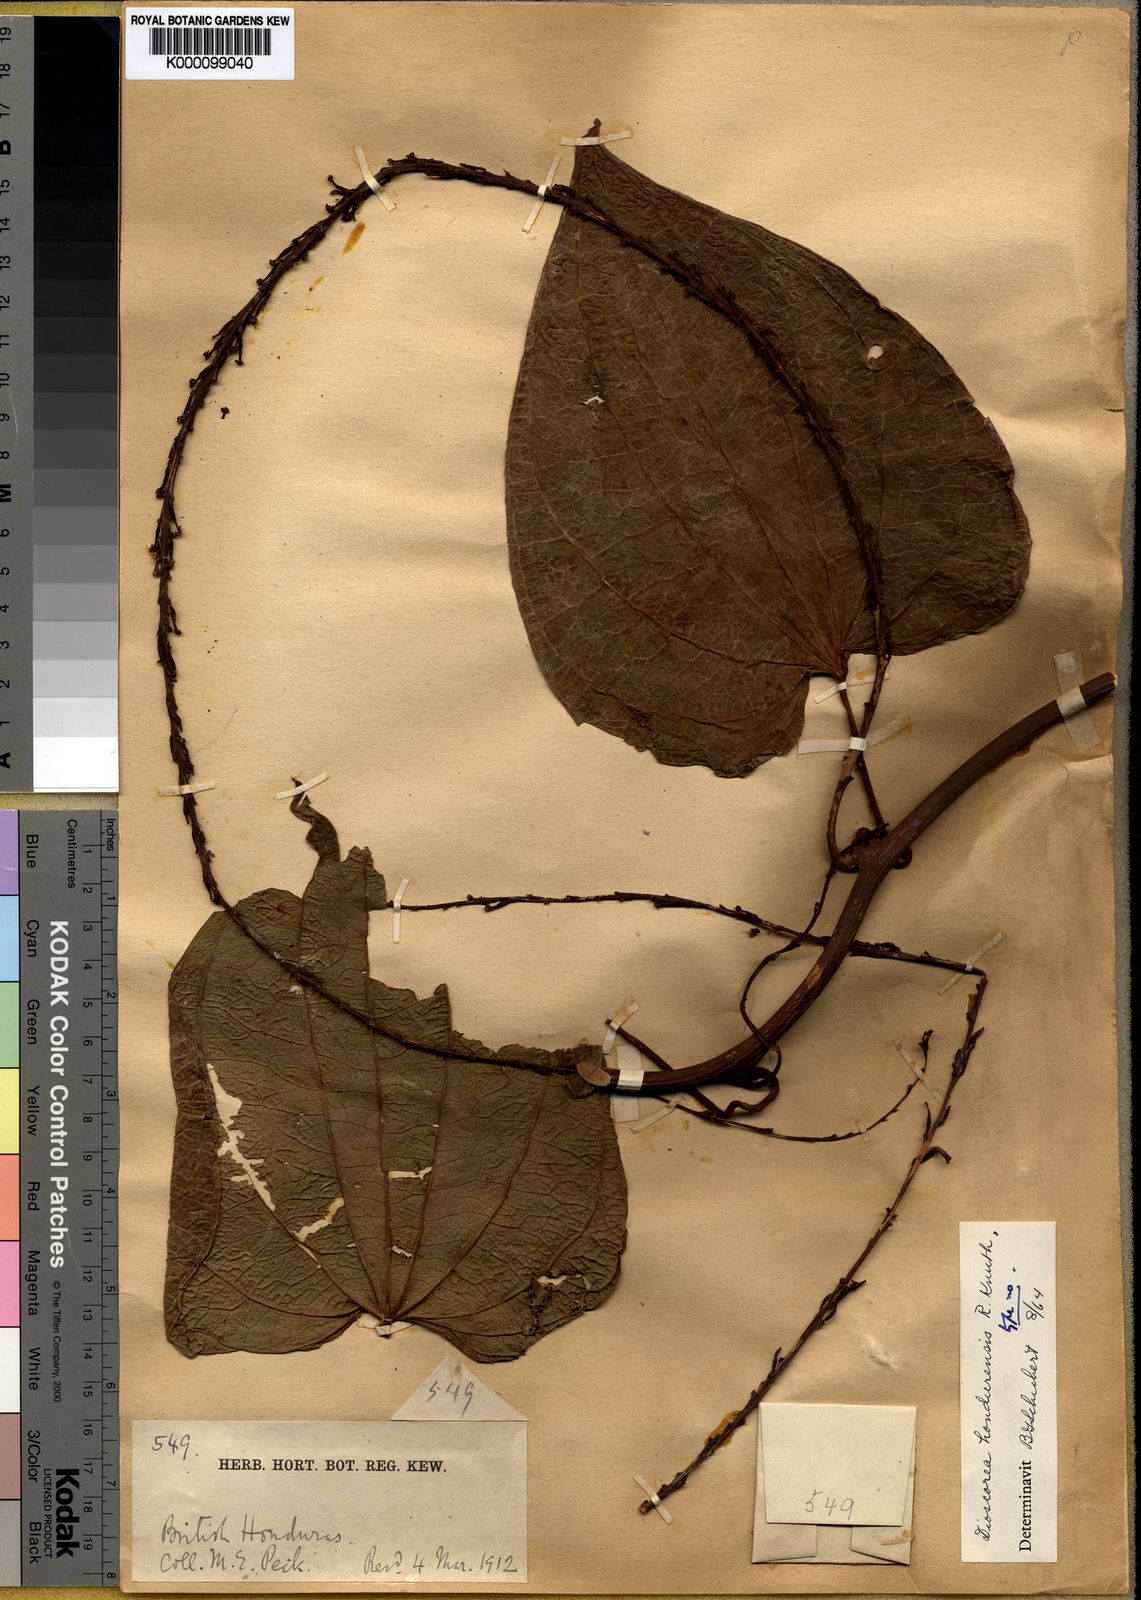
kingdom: Plantae
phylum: Tracheophyta
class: Liliopsida
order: Dioscoreales
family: Dioscoreaceae
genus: Dioscorea
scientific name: Dioscorea hondurensis
